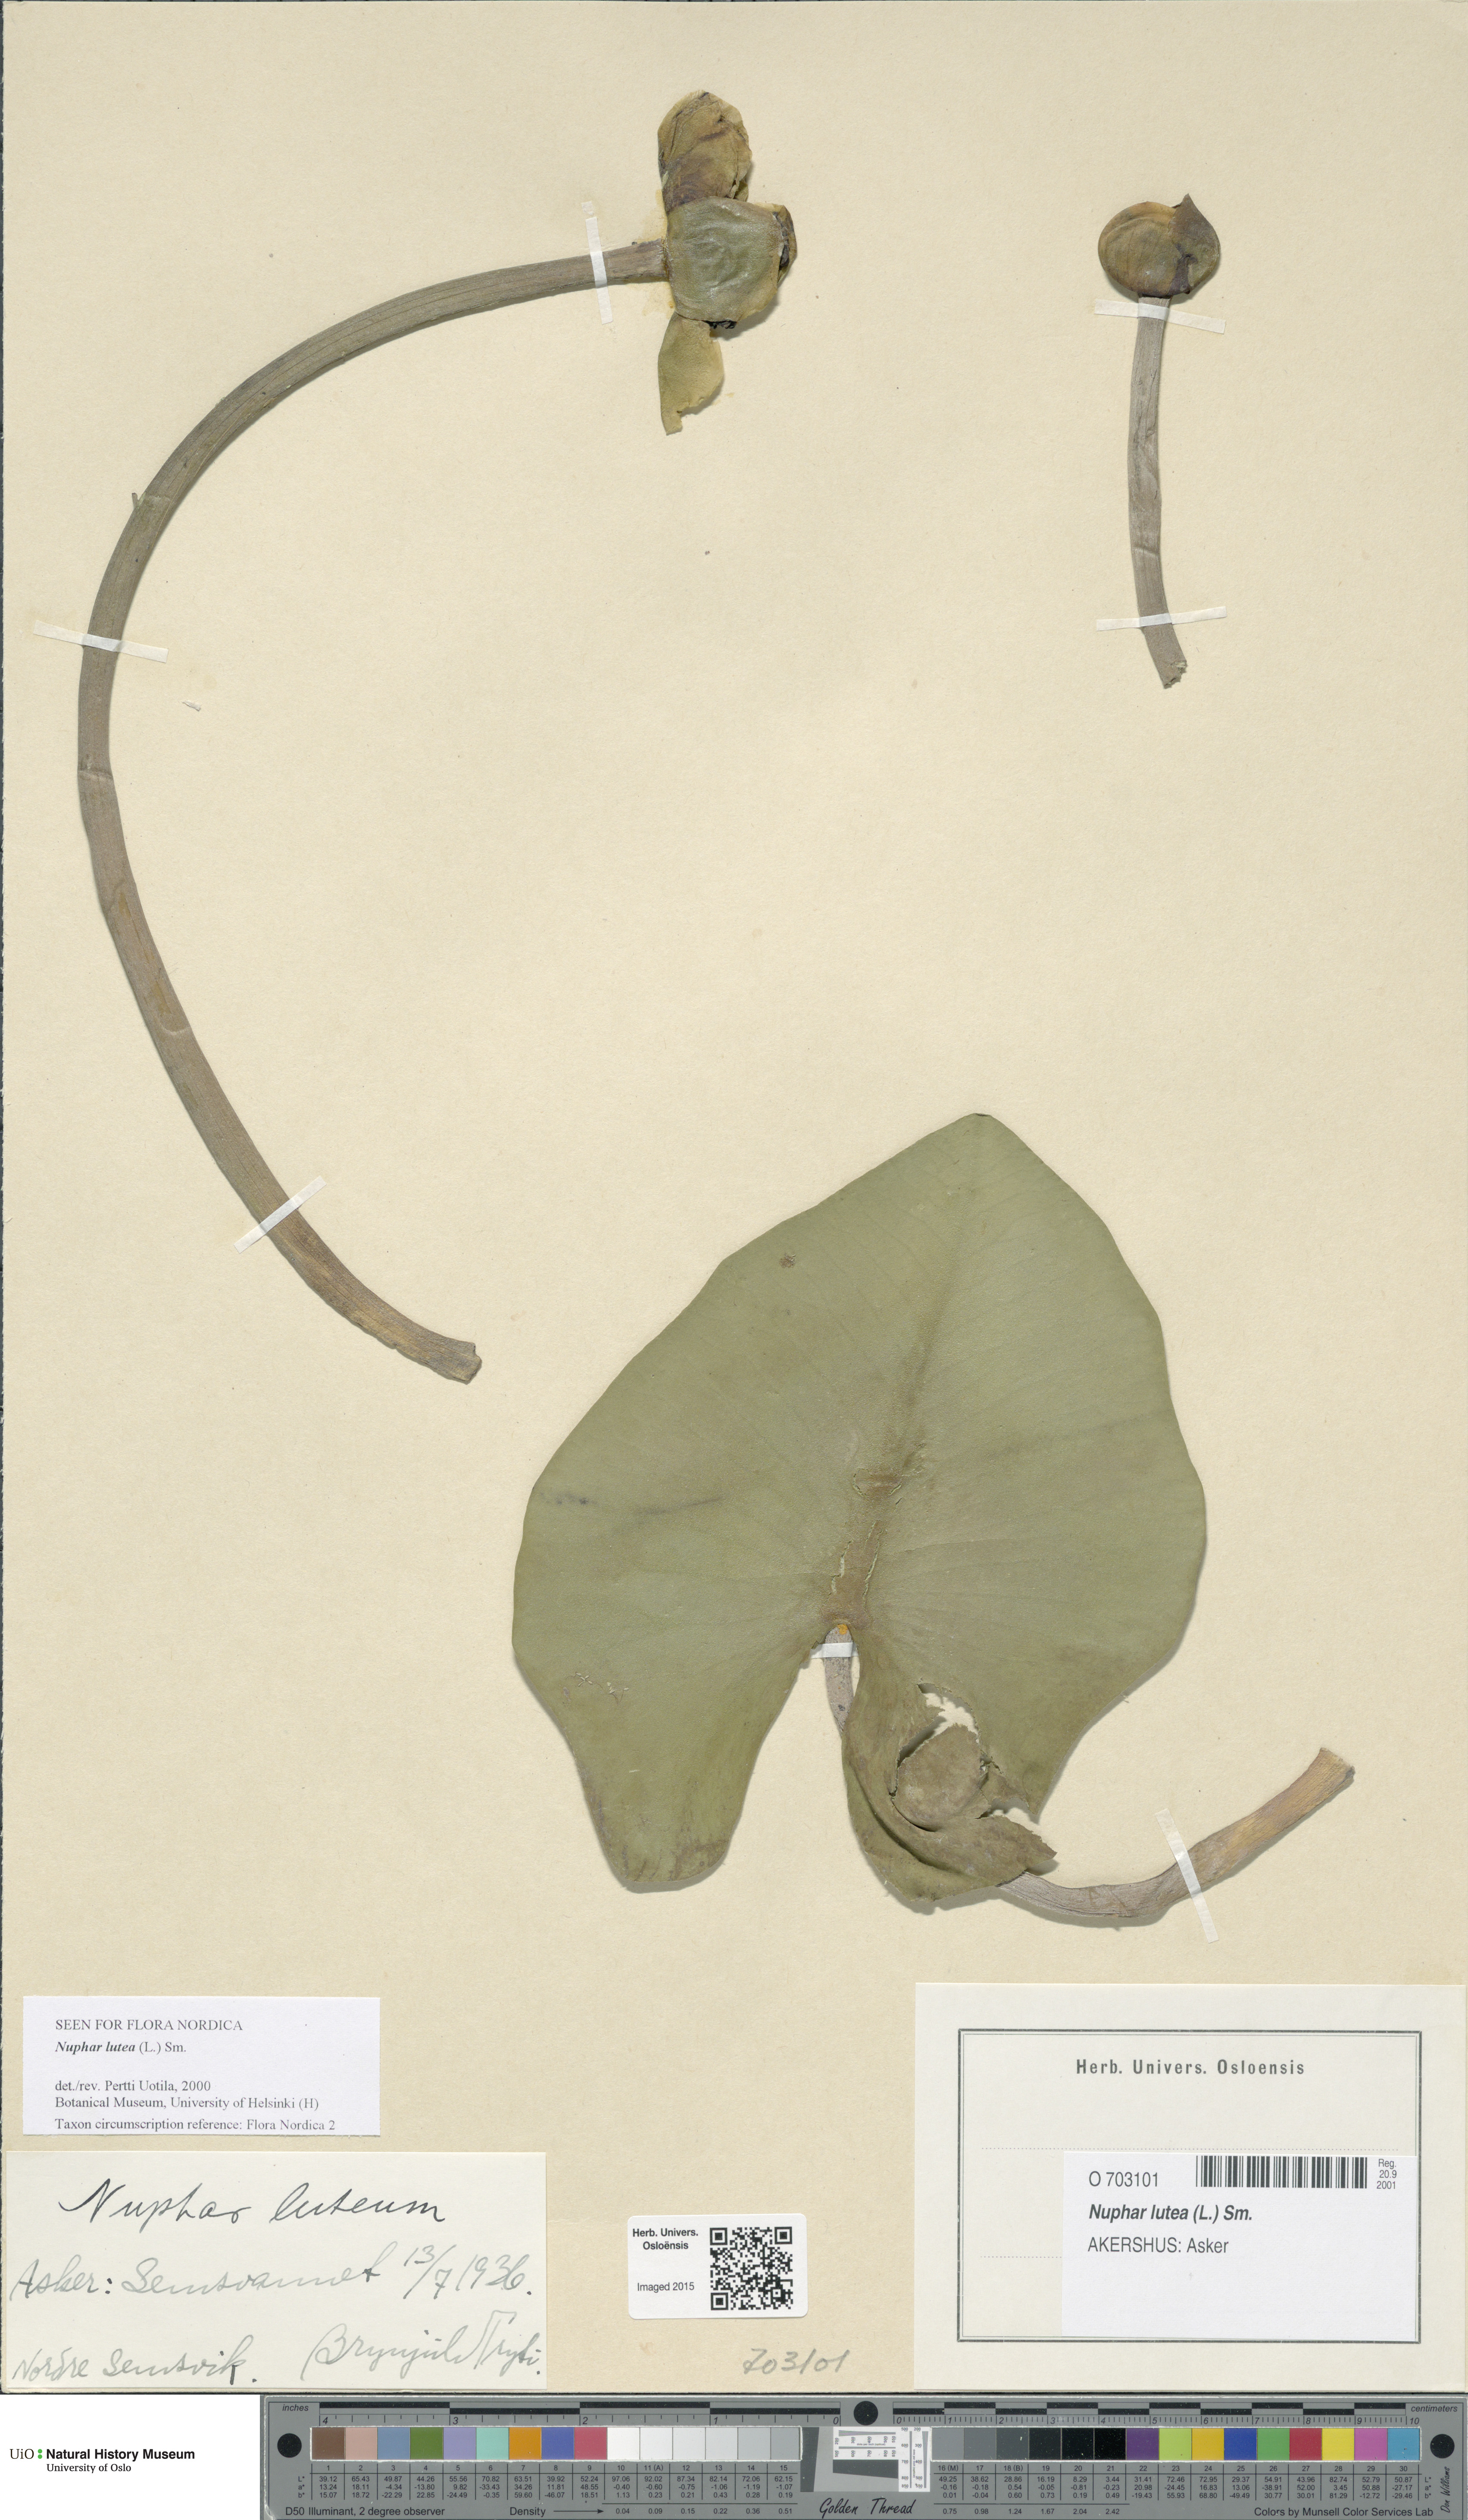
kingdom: Plantae
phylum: Tracheophyta
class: Magnoliopsida
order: Nymphaeales
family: Nymphaeaceae
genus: Nuphar
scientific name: Nuphar lutea
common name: Yellow water-lily
